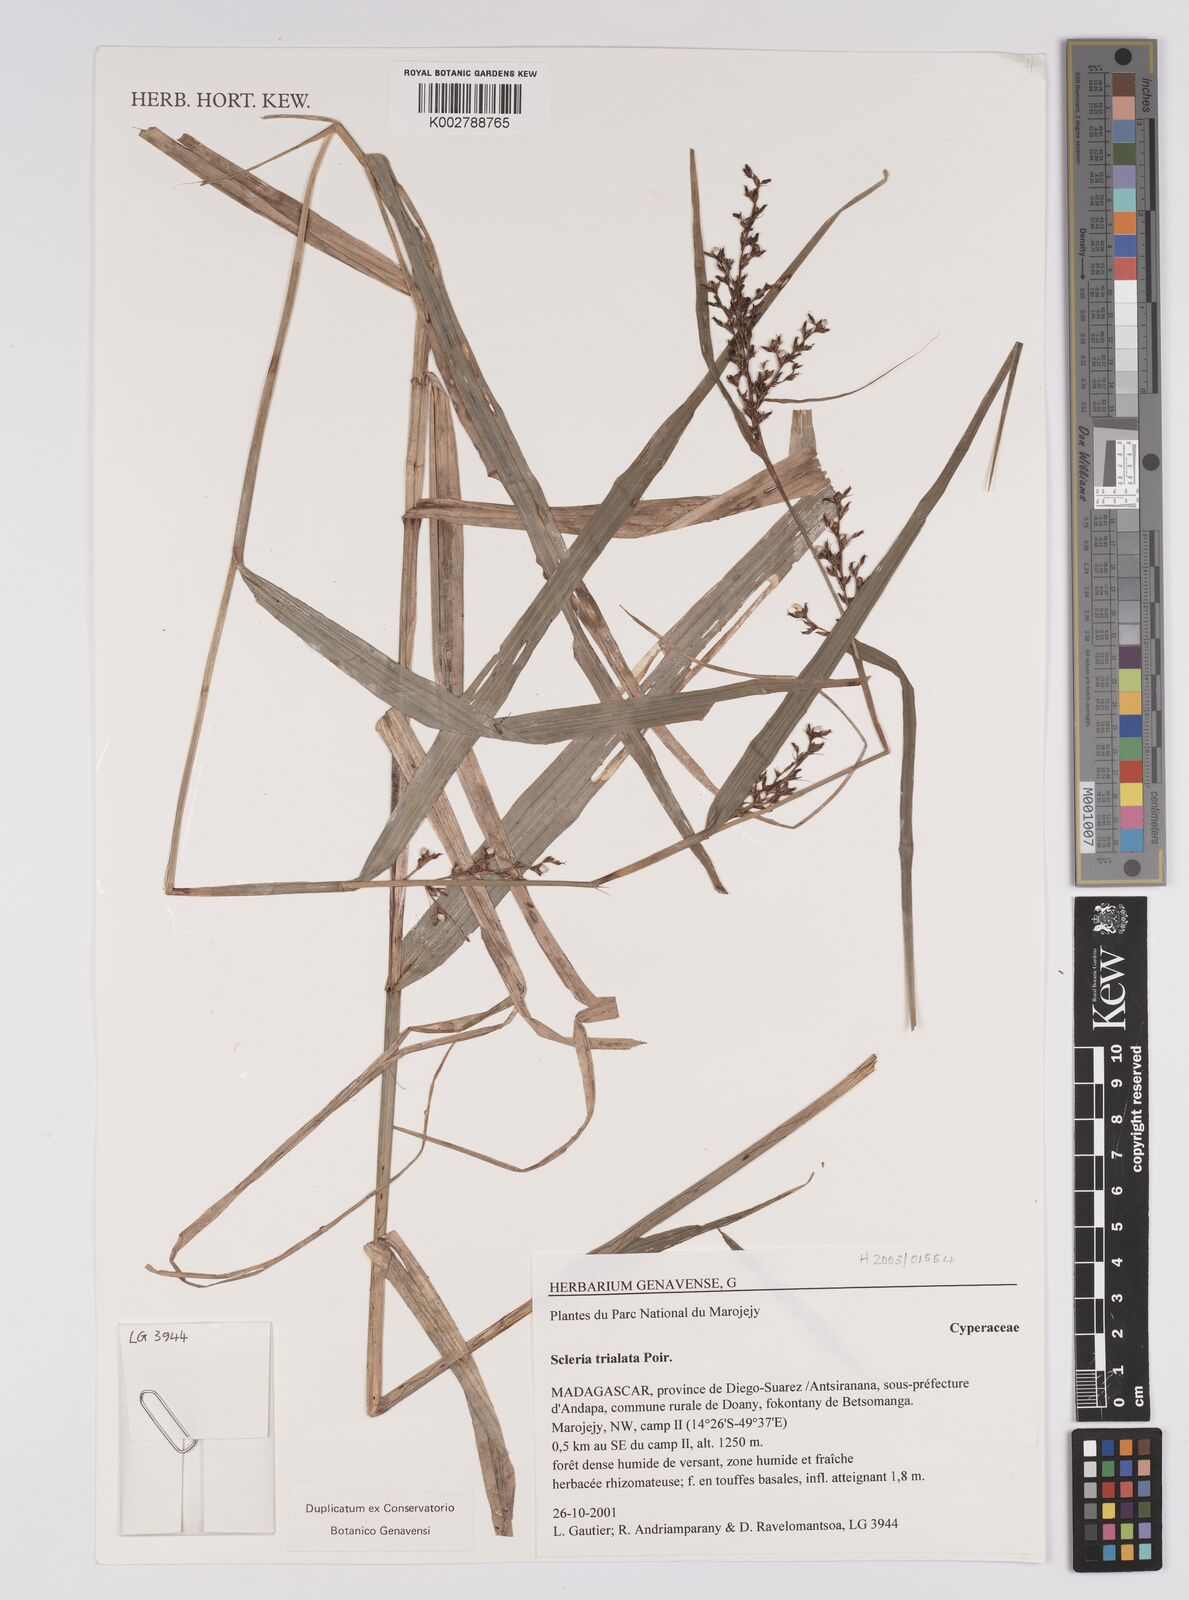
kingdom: Plantae
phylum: Tracheophyta
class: Liliopsida
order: Poales
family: Cyperaceae
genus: Scleria
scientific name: Scleria trialata
